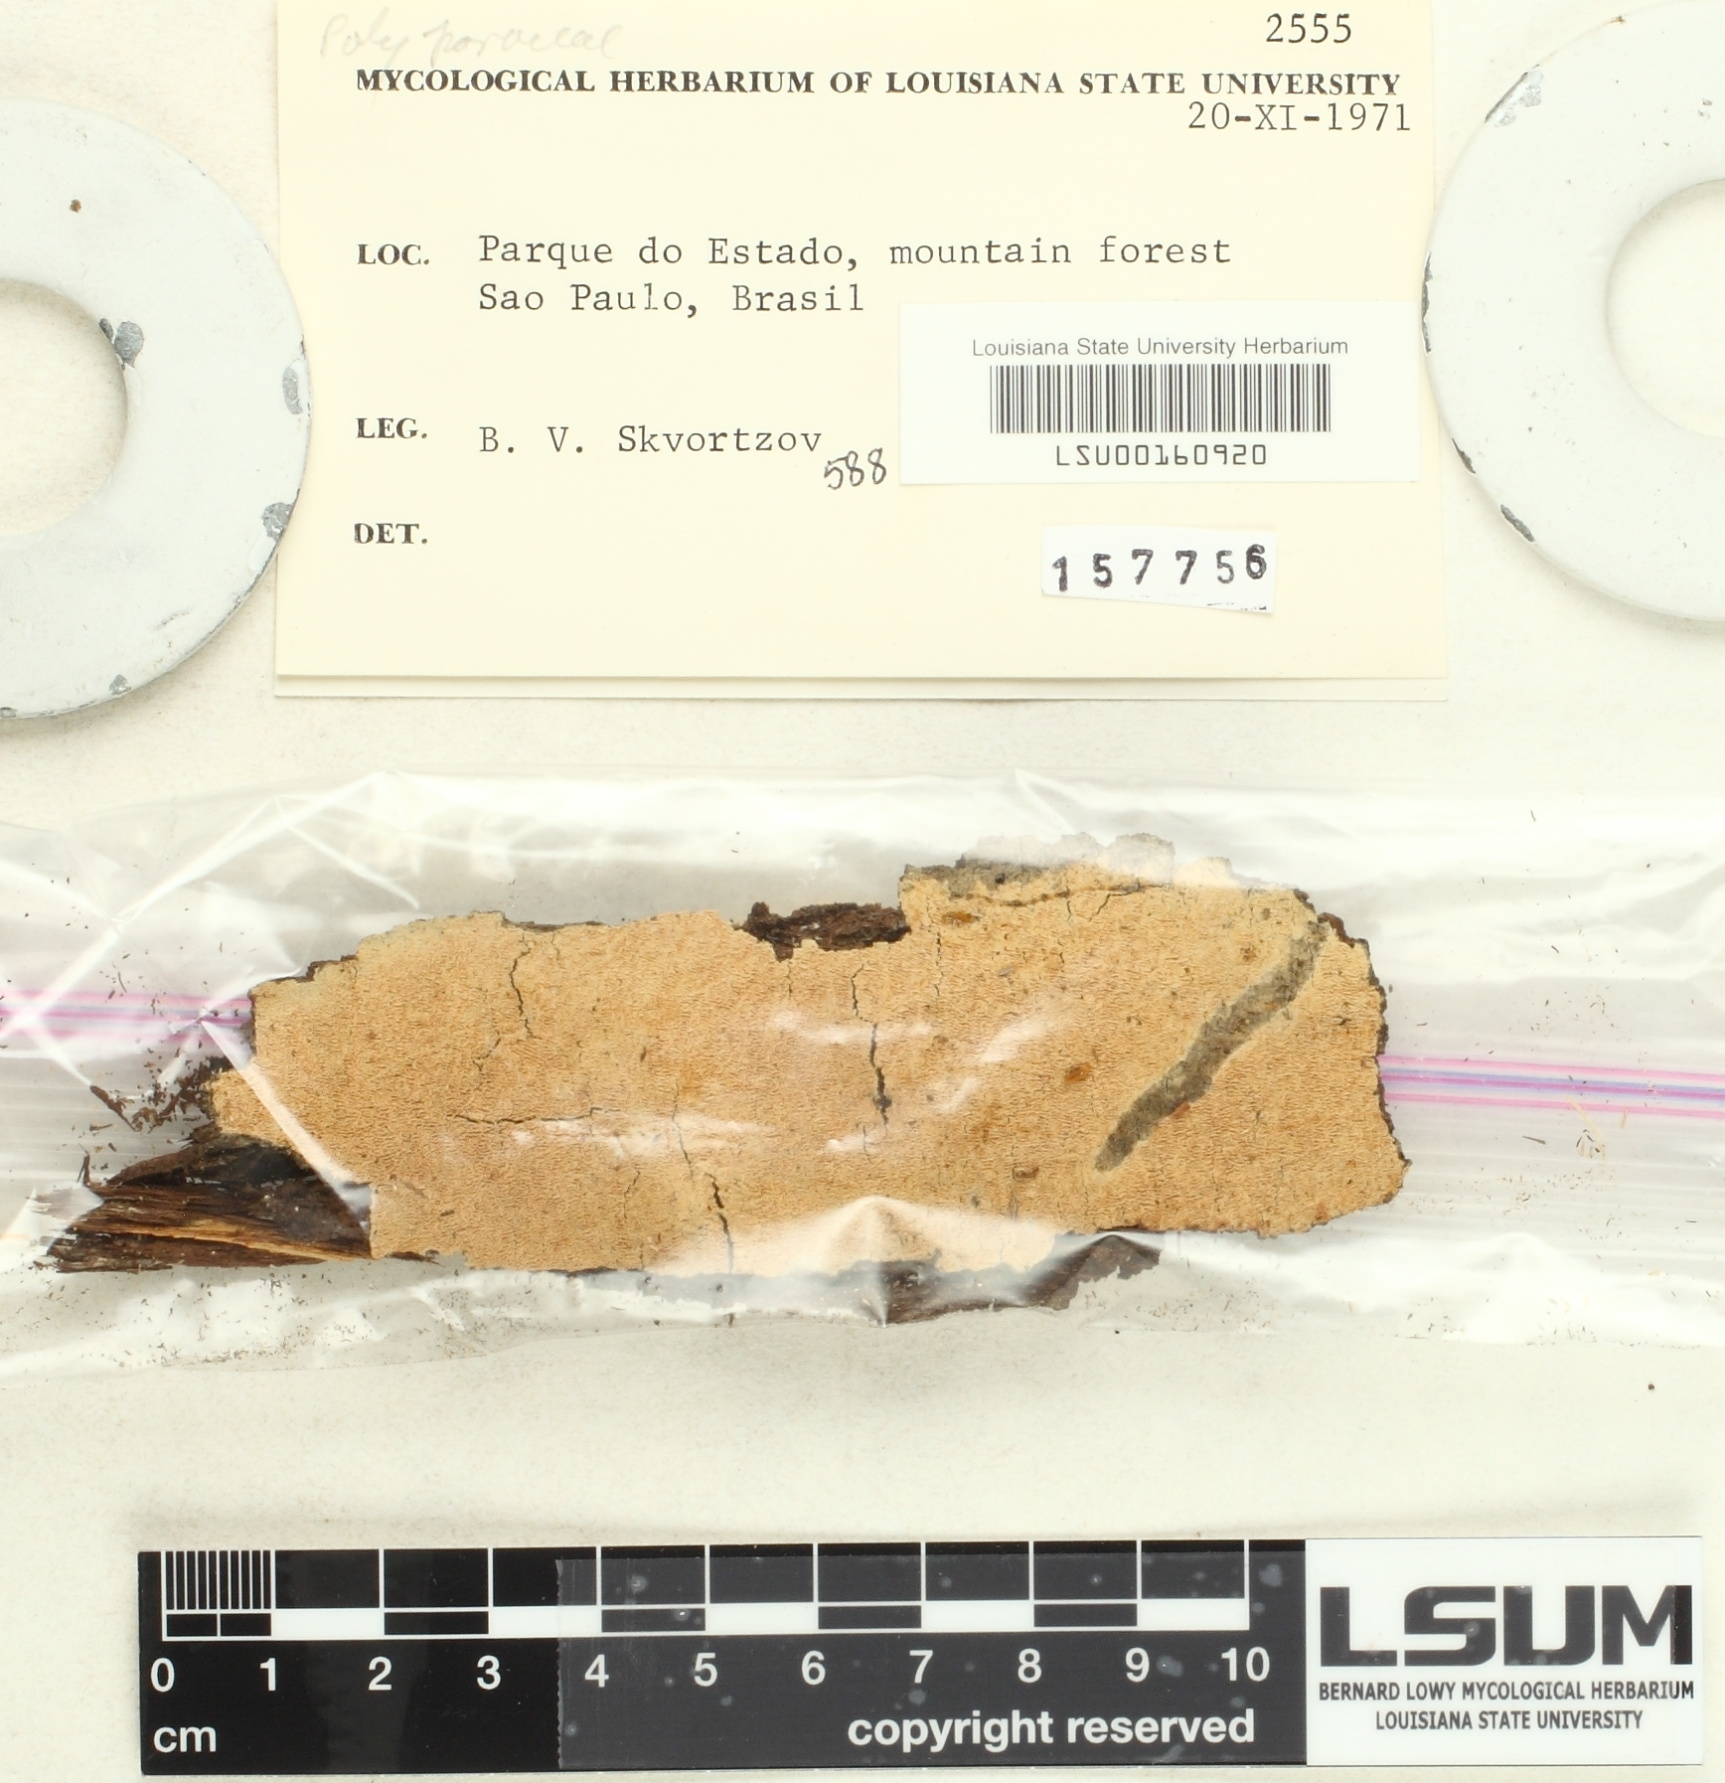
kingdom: Fungi
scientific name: Fungi
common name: Fungi
